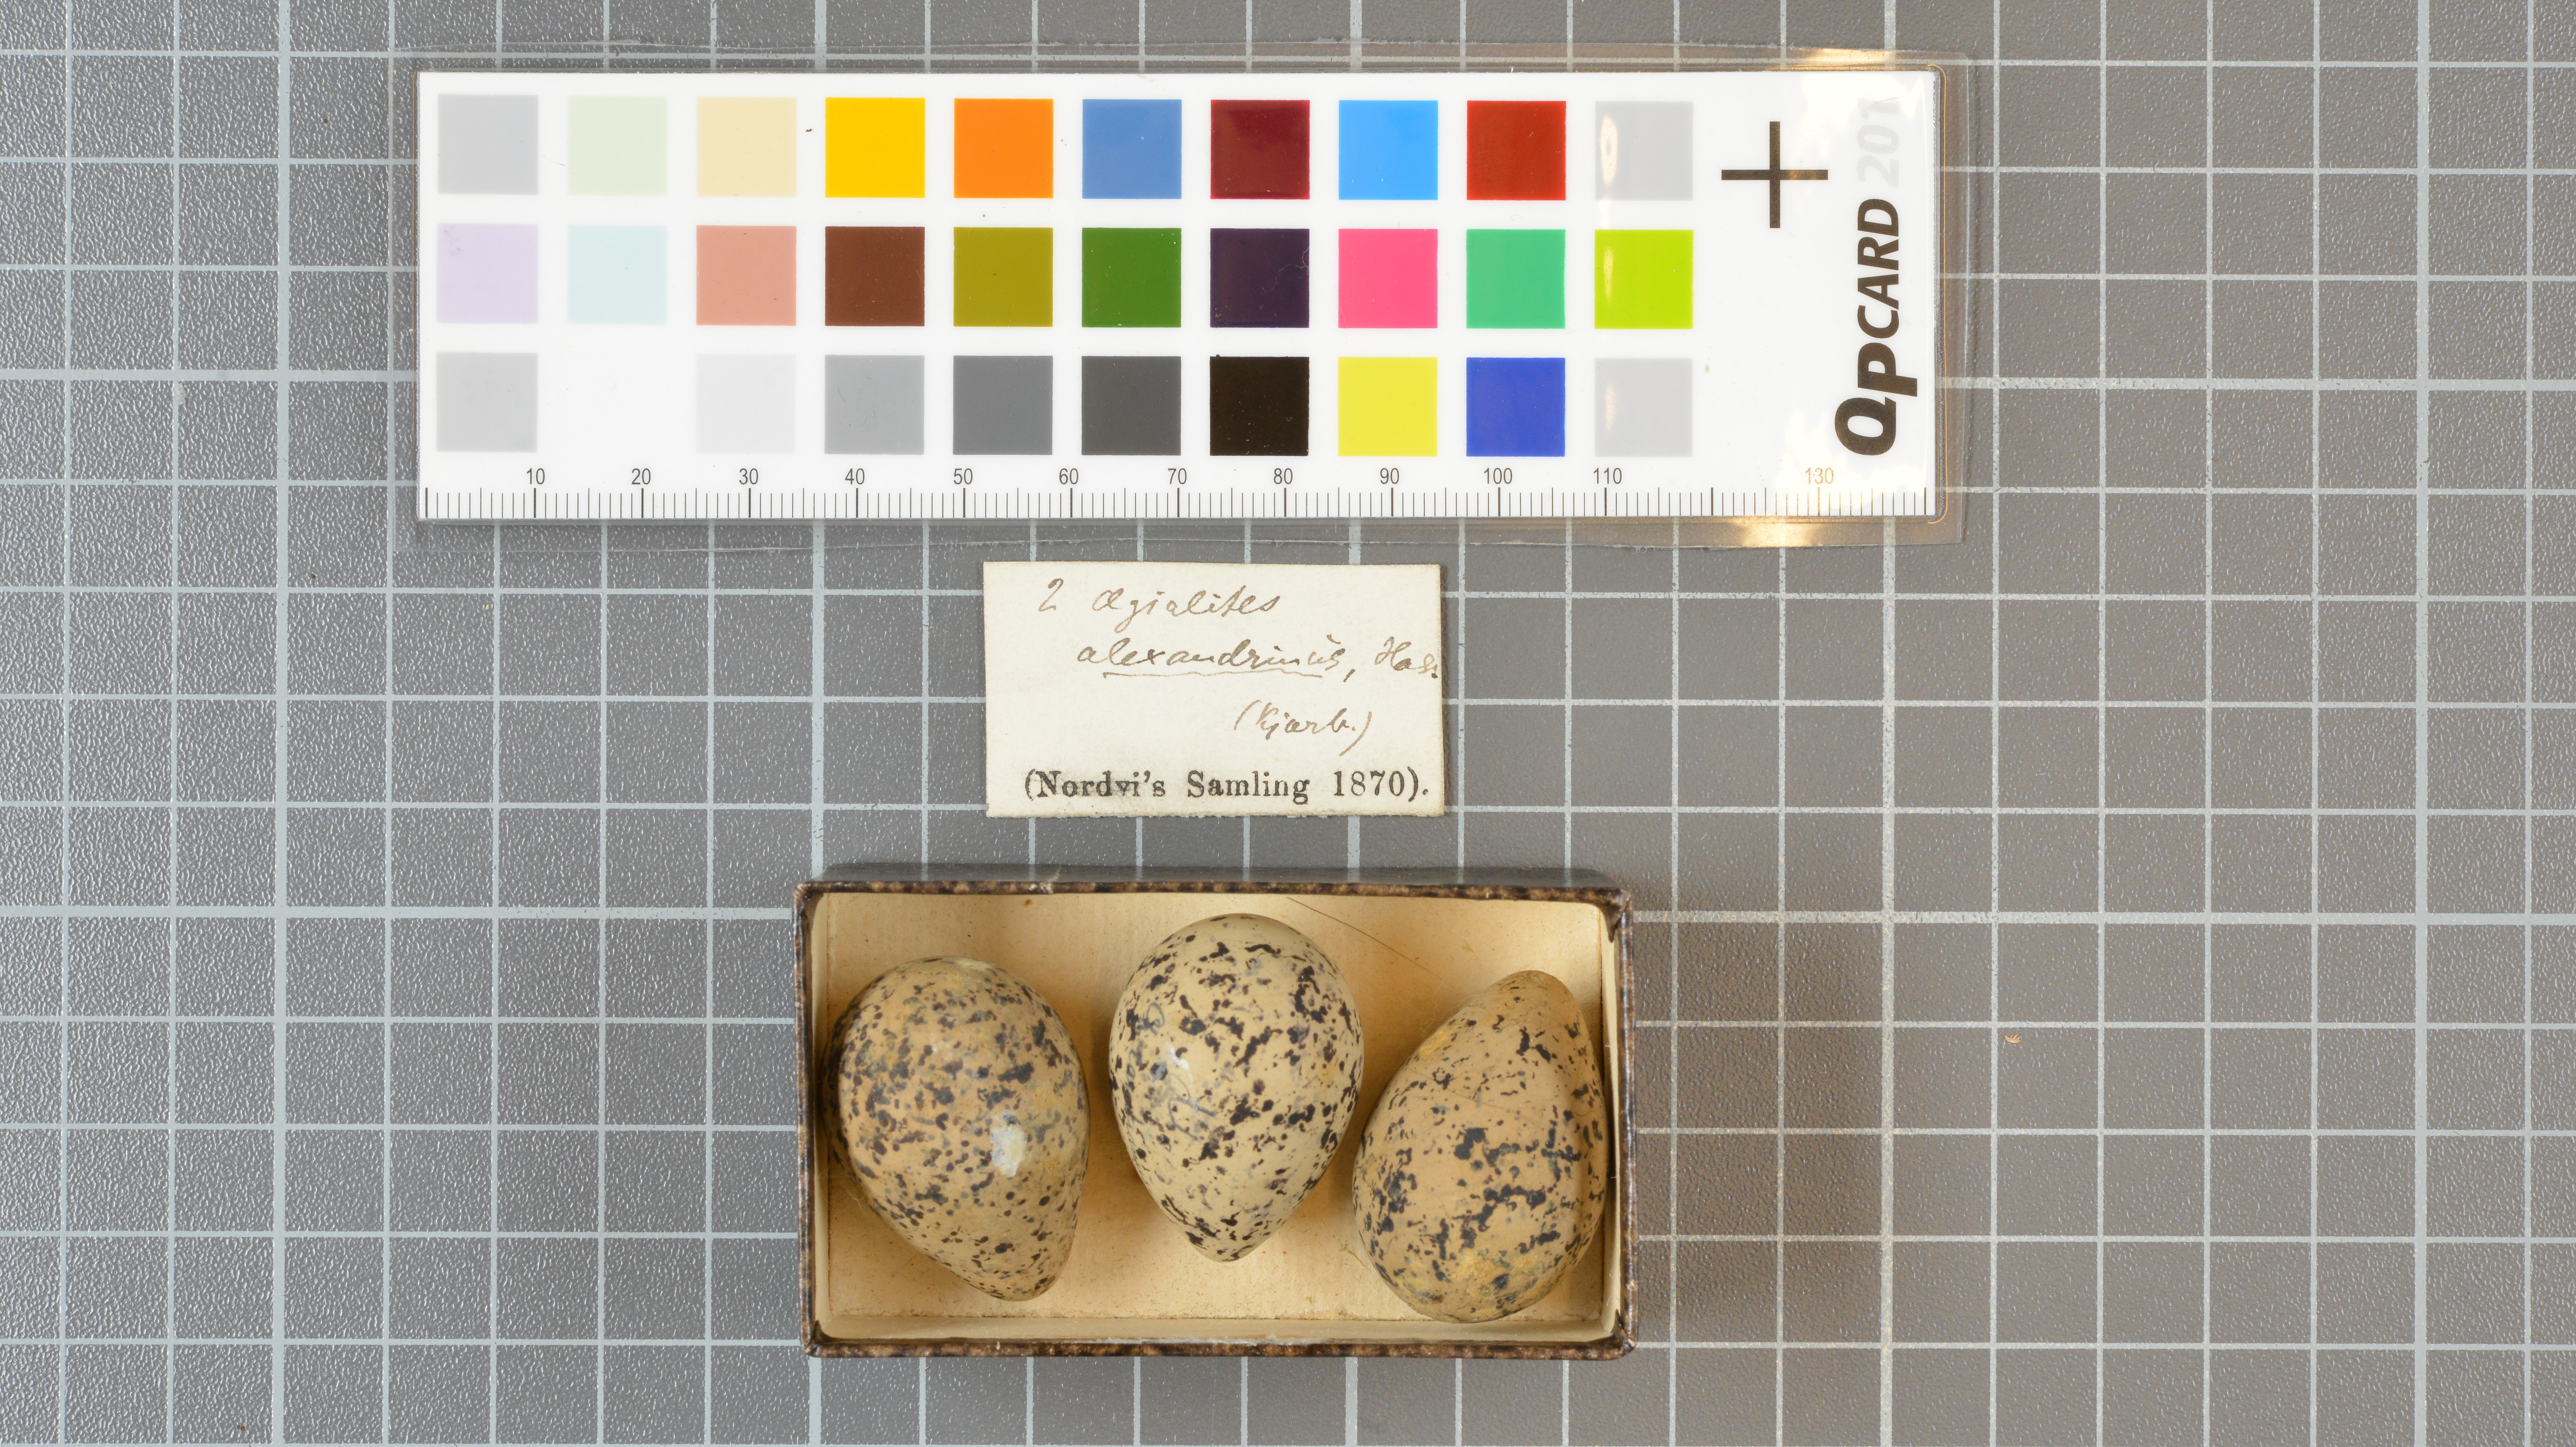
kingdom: Animalia
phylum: Chordata
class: Aves
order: Charadriiformes
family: Charadriidae
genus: Charadrius
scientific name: Charadrius alexandrinus
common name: Kentish plover
